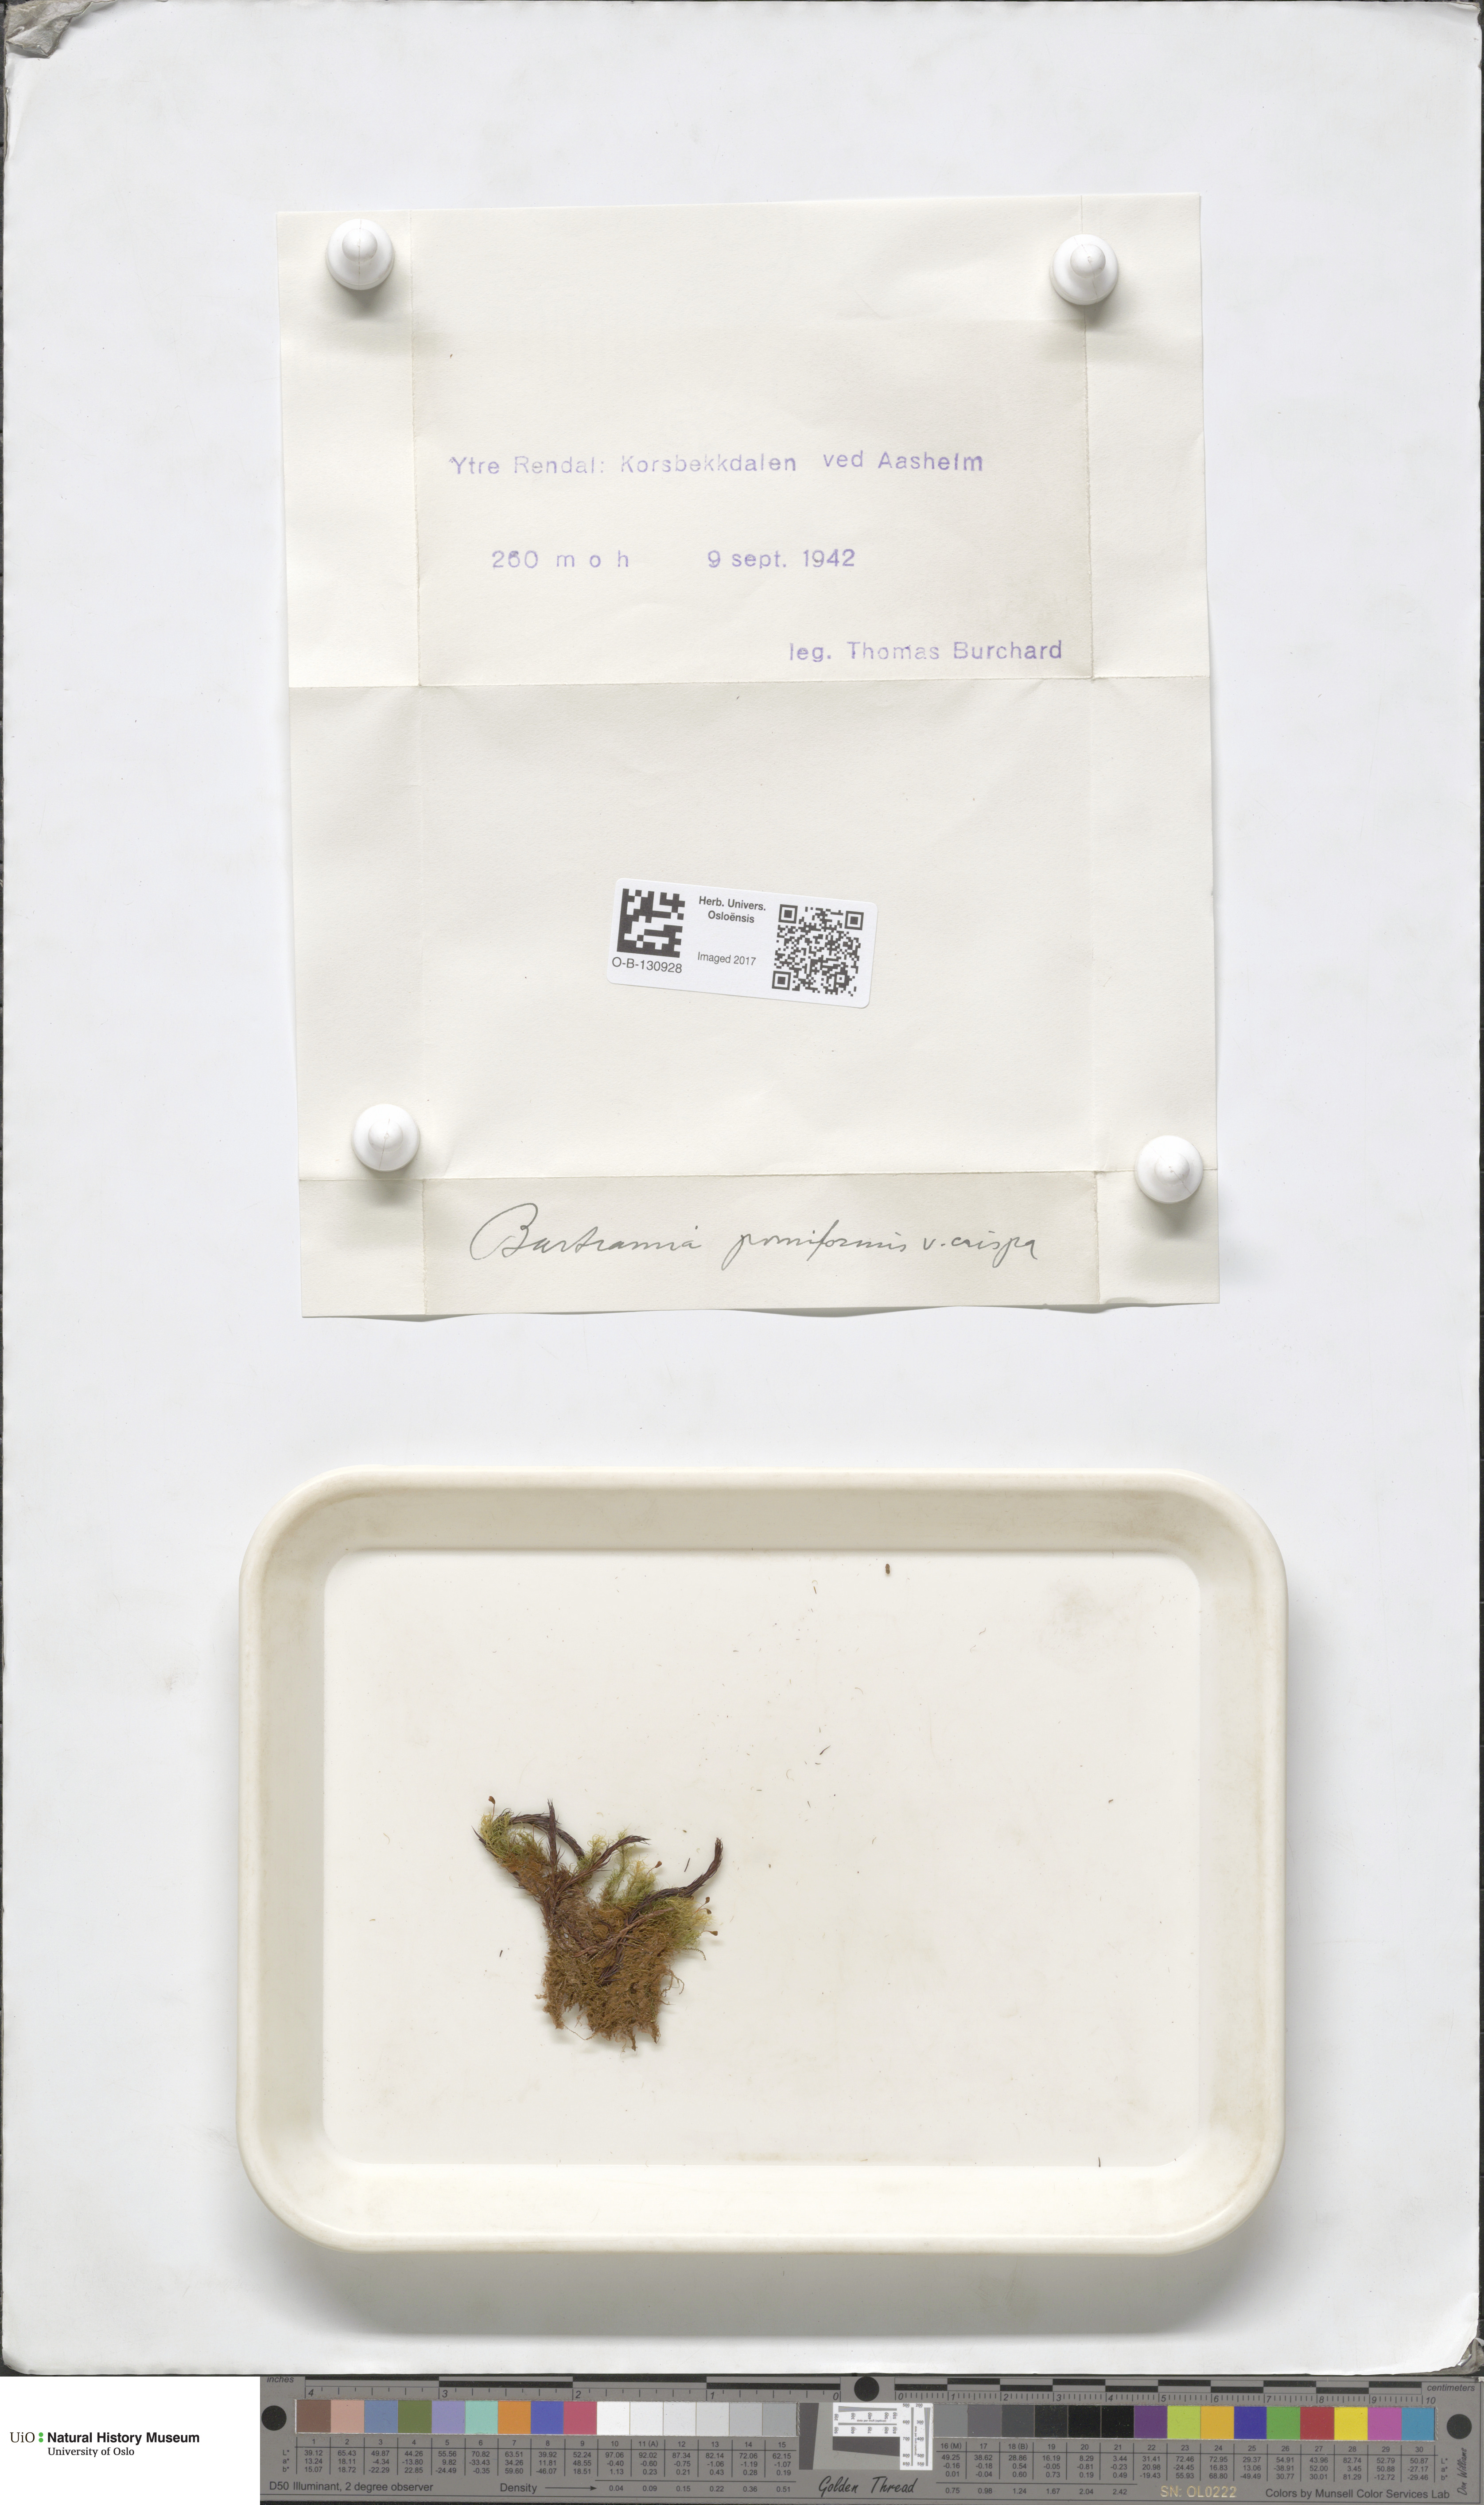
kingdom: Plantae
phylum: Bryophyta
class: Bryopsida
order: Bartramiales
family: Bartramiaceae
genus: Bartramia
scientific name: Bartramia pomiformis
